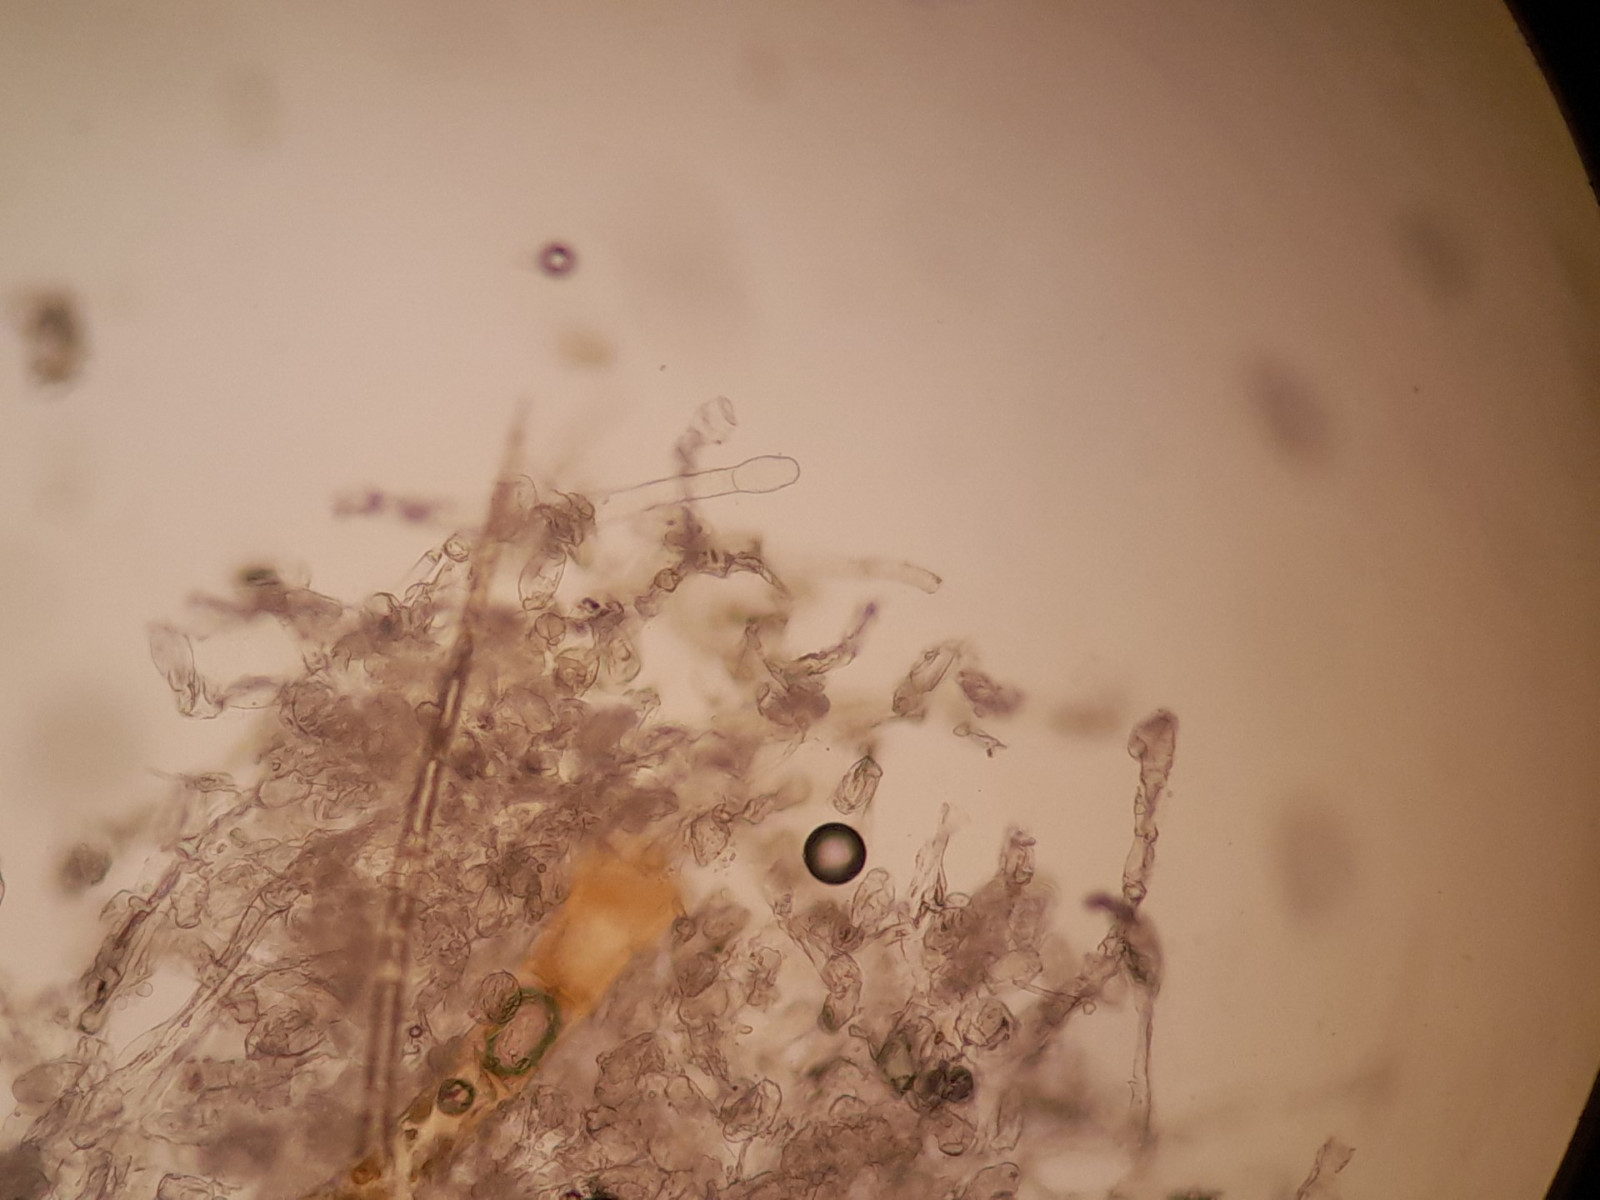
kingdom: Fungi
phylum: Ascomycota
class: Leotiomycetes
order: Helotiales
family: Erysiphaceae
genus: Golovinomyces
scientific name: Golovinomyces verbasci
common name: kongelys-meldug
